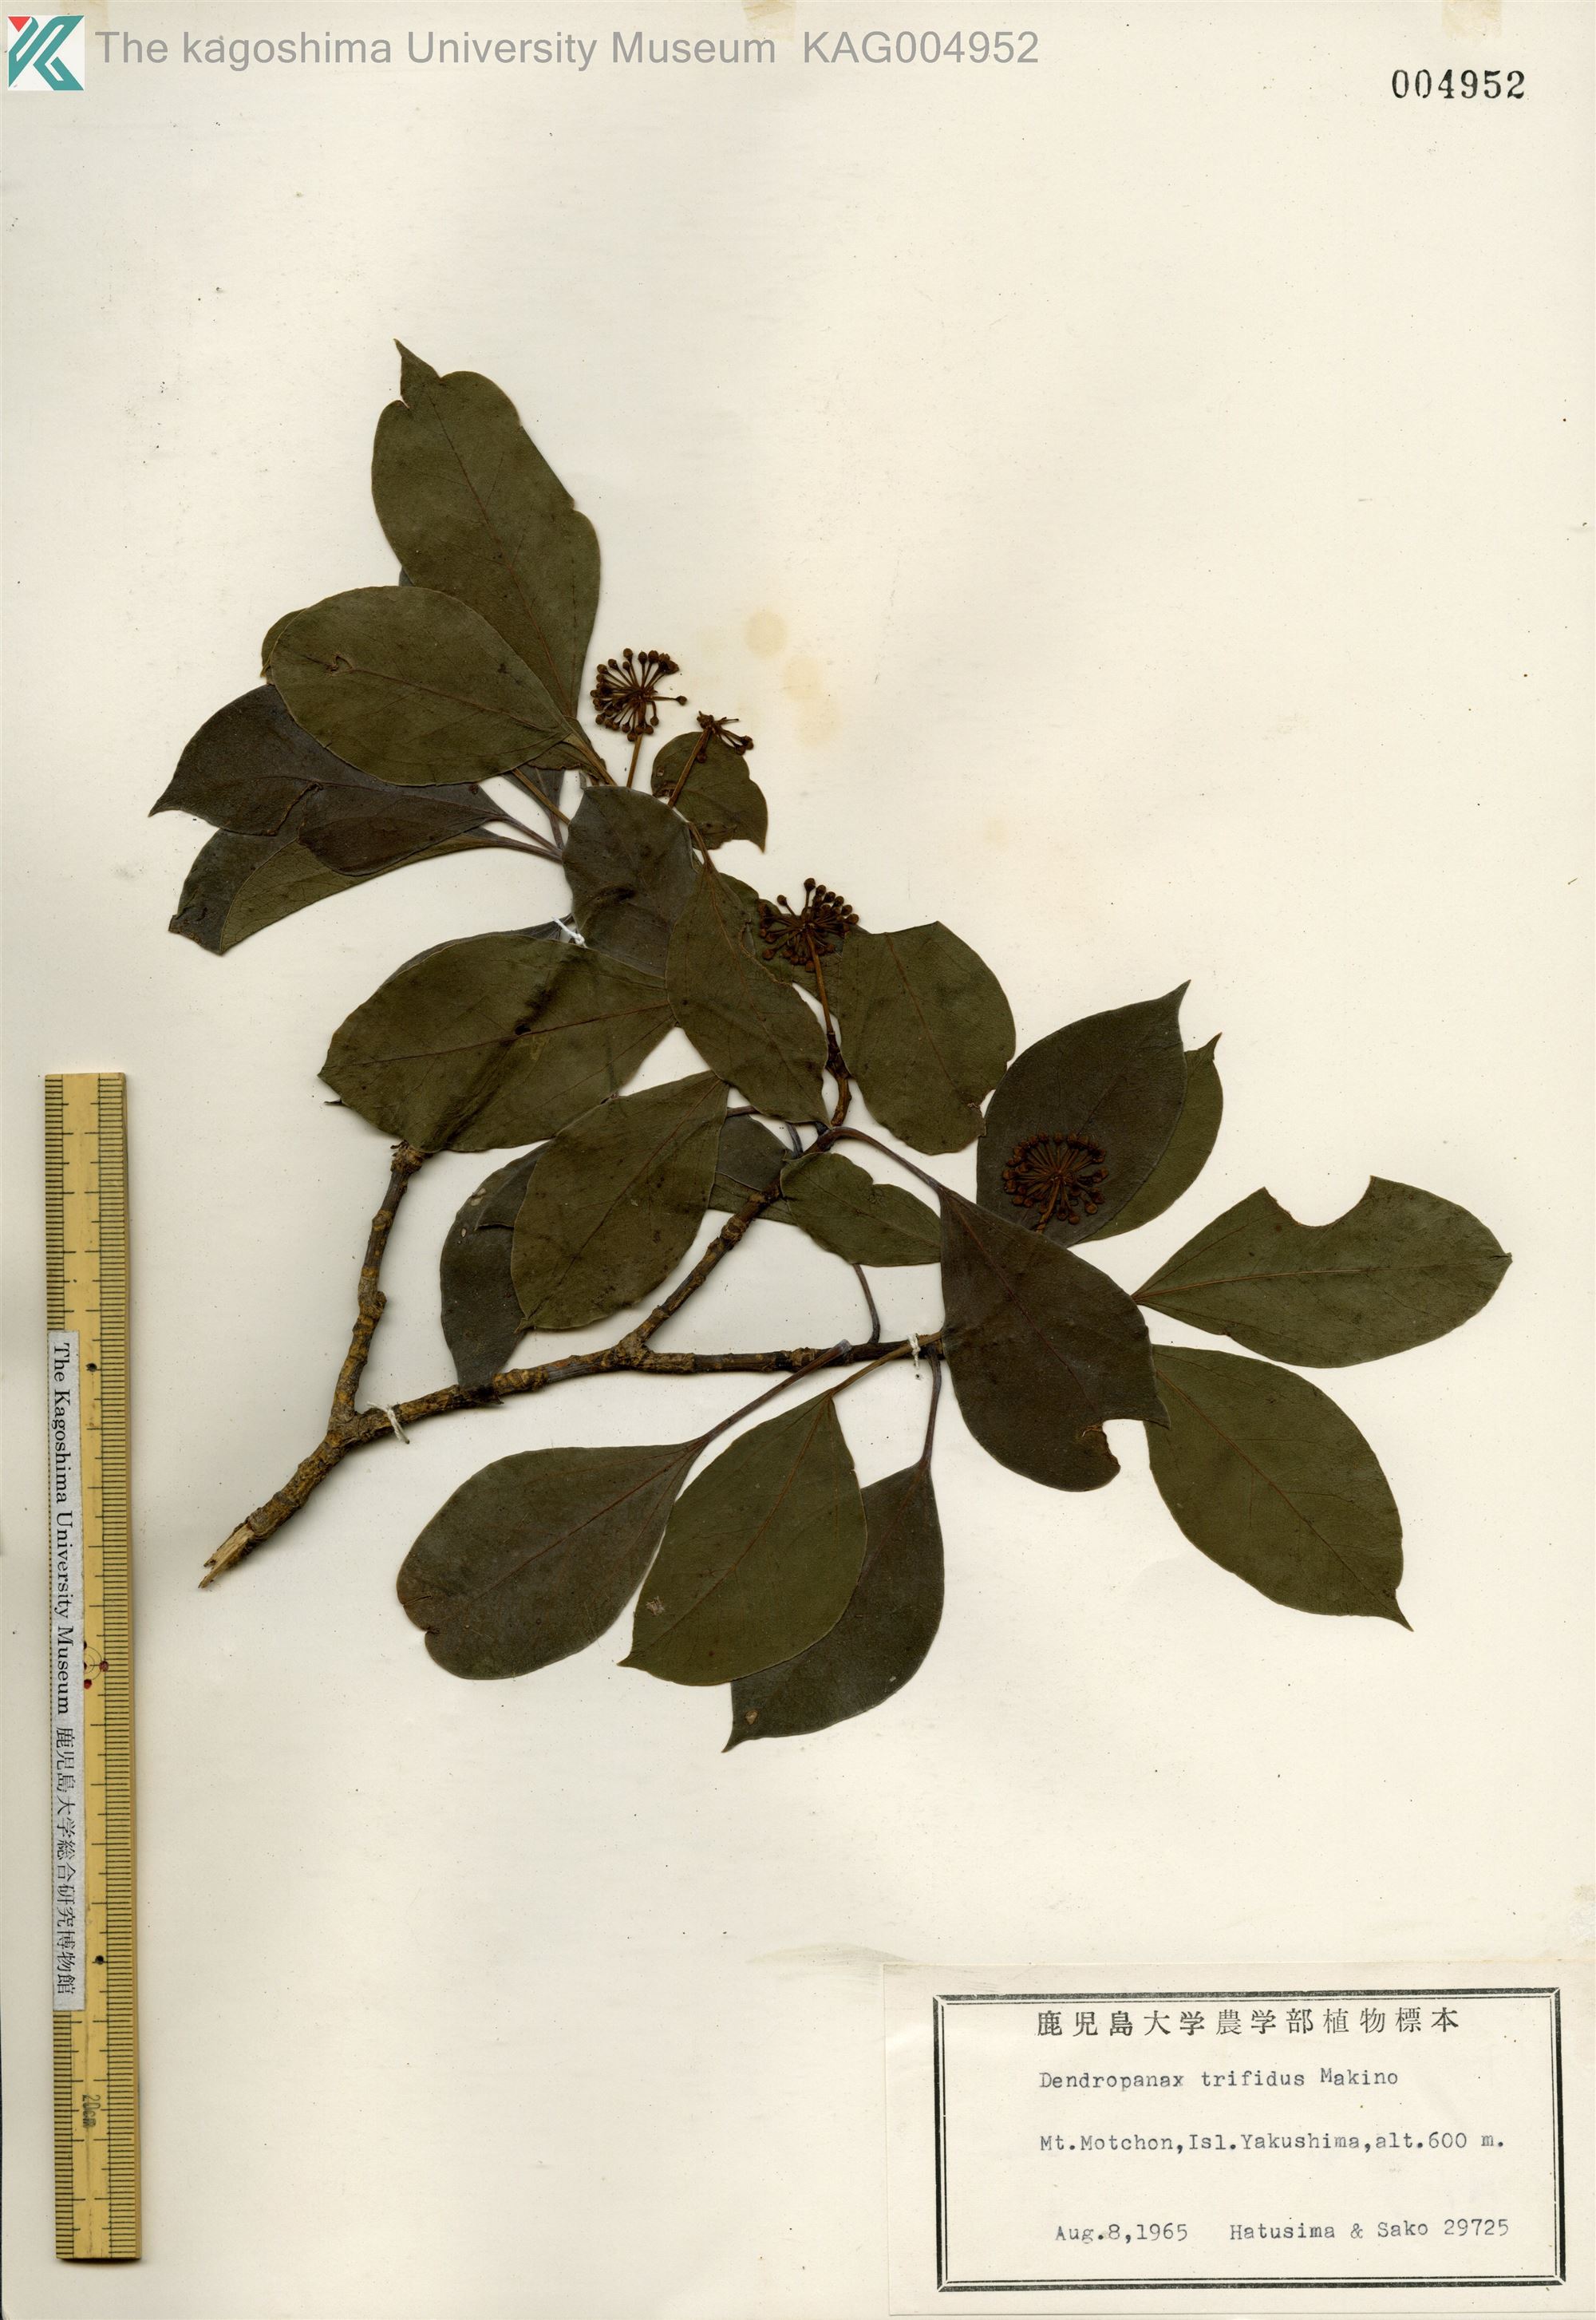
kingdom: Plantae
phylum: Tracheophyta
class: Magnoliopsida
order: Apiales
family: Araliaceae
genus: Dendropanax
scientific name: Dendropanax trifidus
